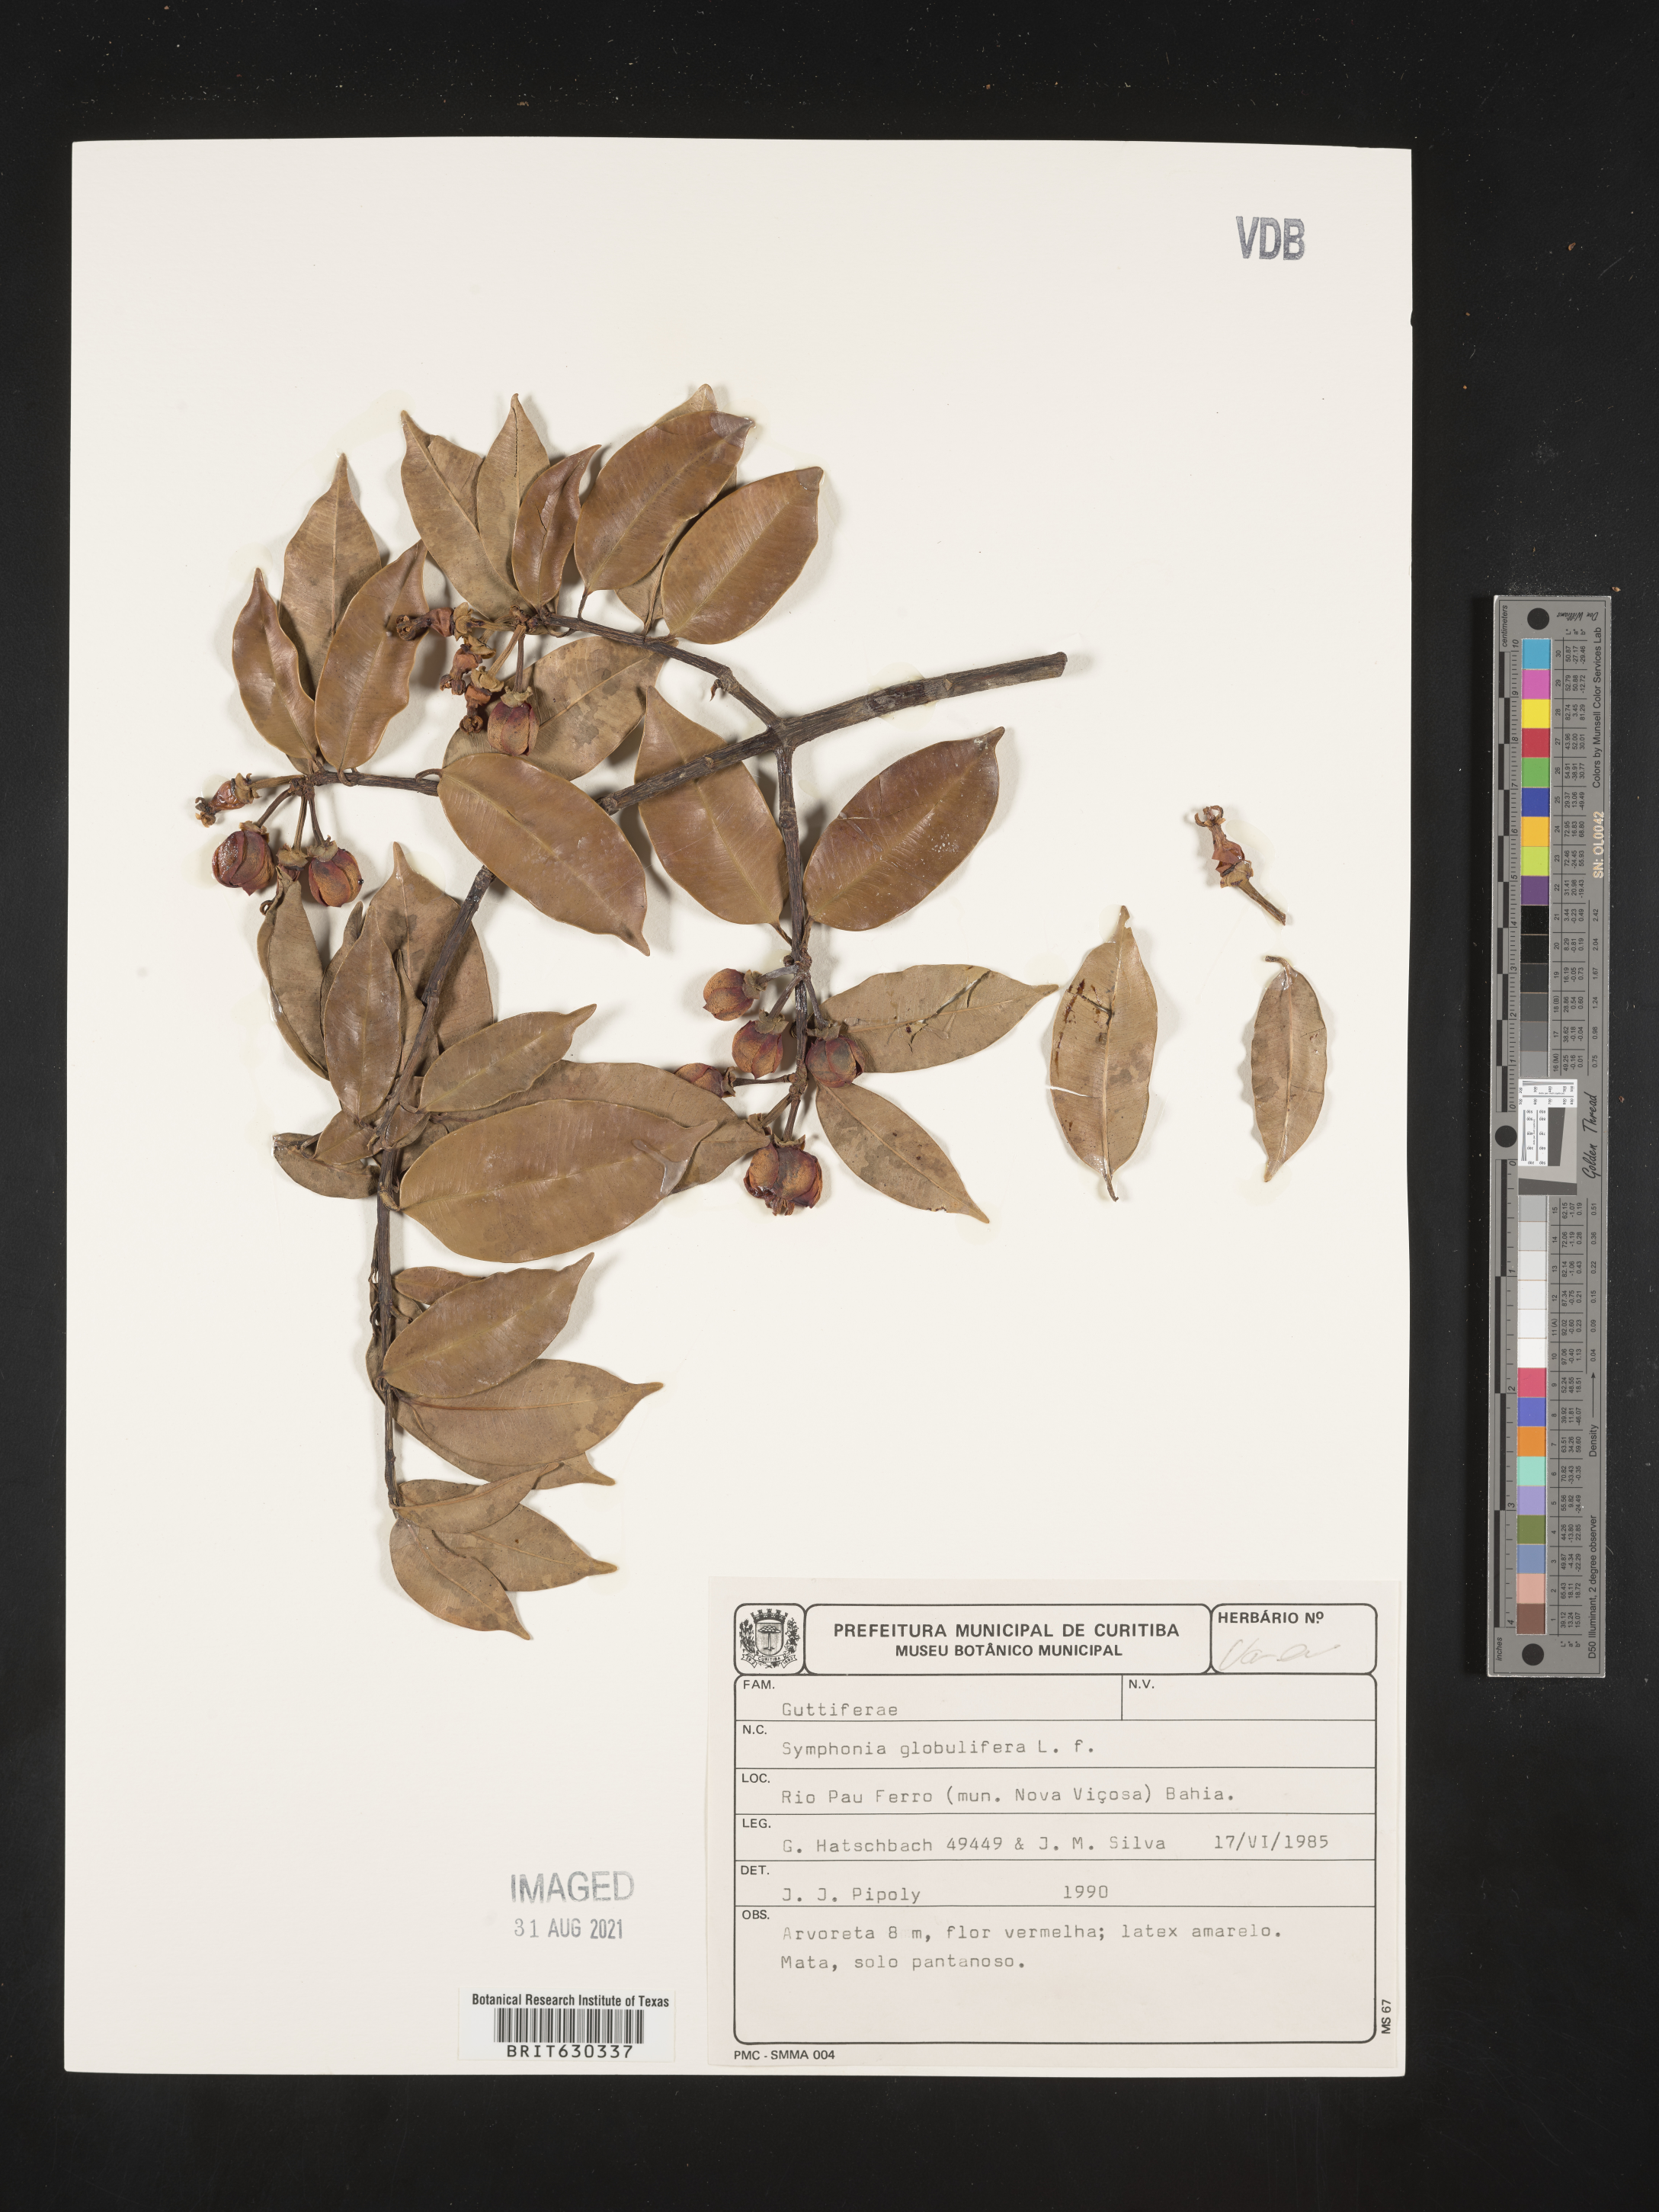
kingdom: Plantae
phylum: Tracheophyta
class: Magnoliopsida
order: Malpighiales
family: Clusiaceae
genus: Symphonia
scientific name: Symphonia globulifera
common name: Boarwood
